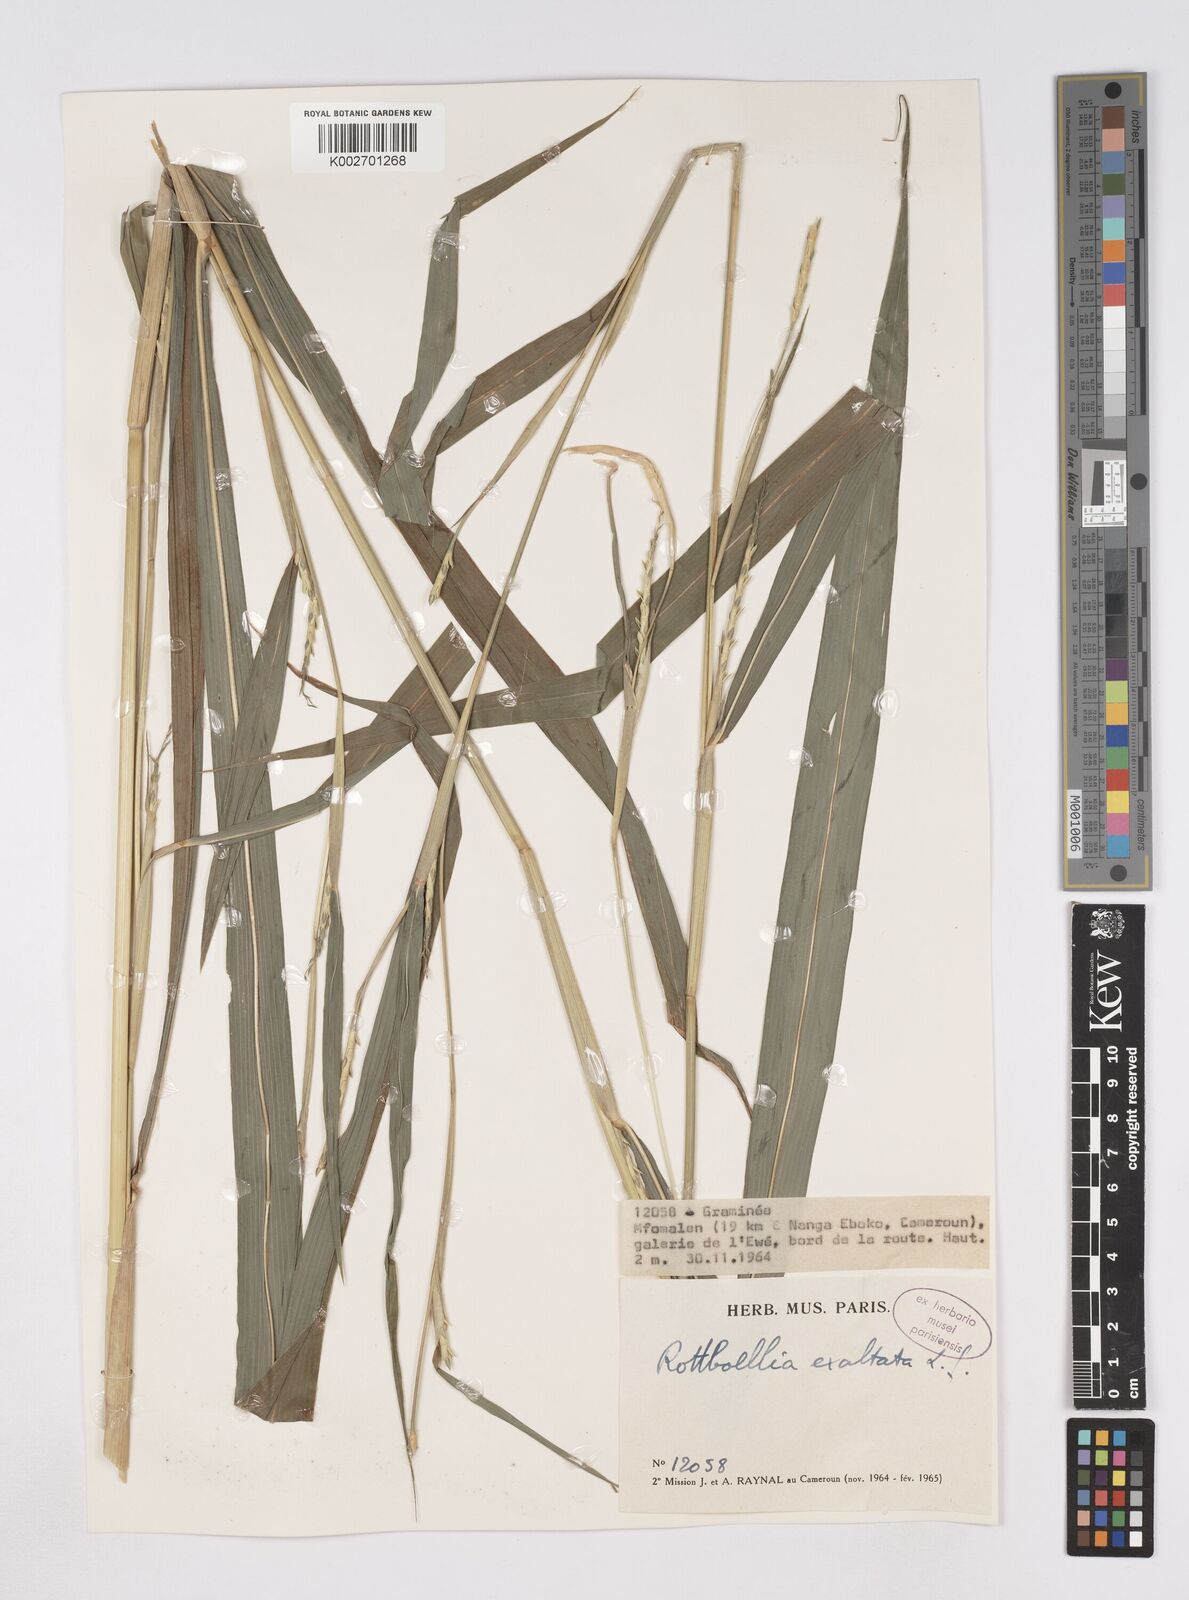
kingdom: Plantae
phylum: Tracheophyta
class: Liliopsida
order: Poales
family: Poaceae
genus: Rottboellia
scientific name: Rottboellia
